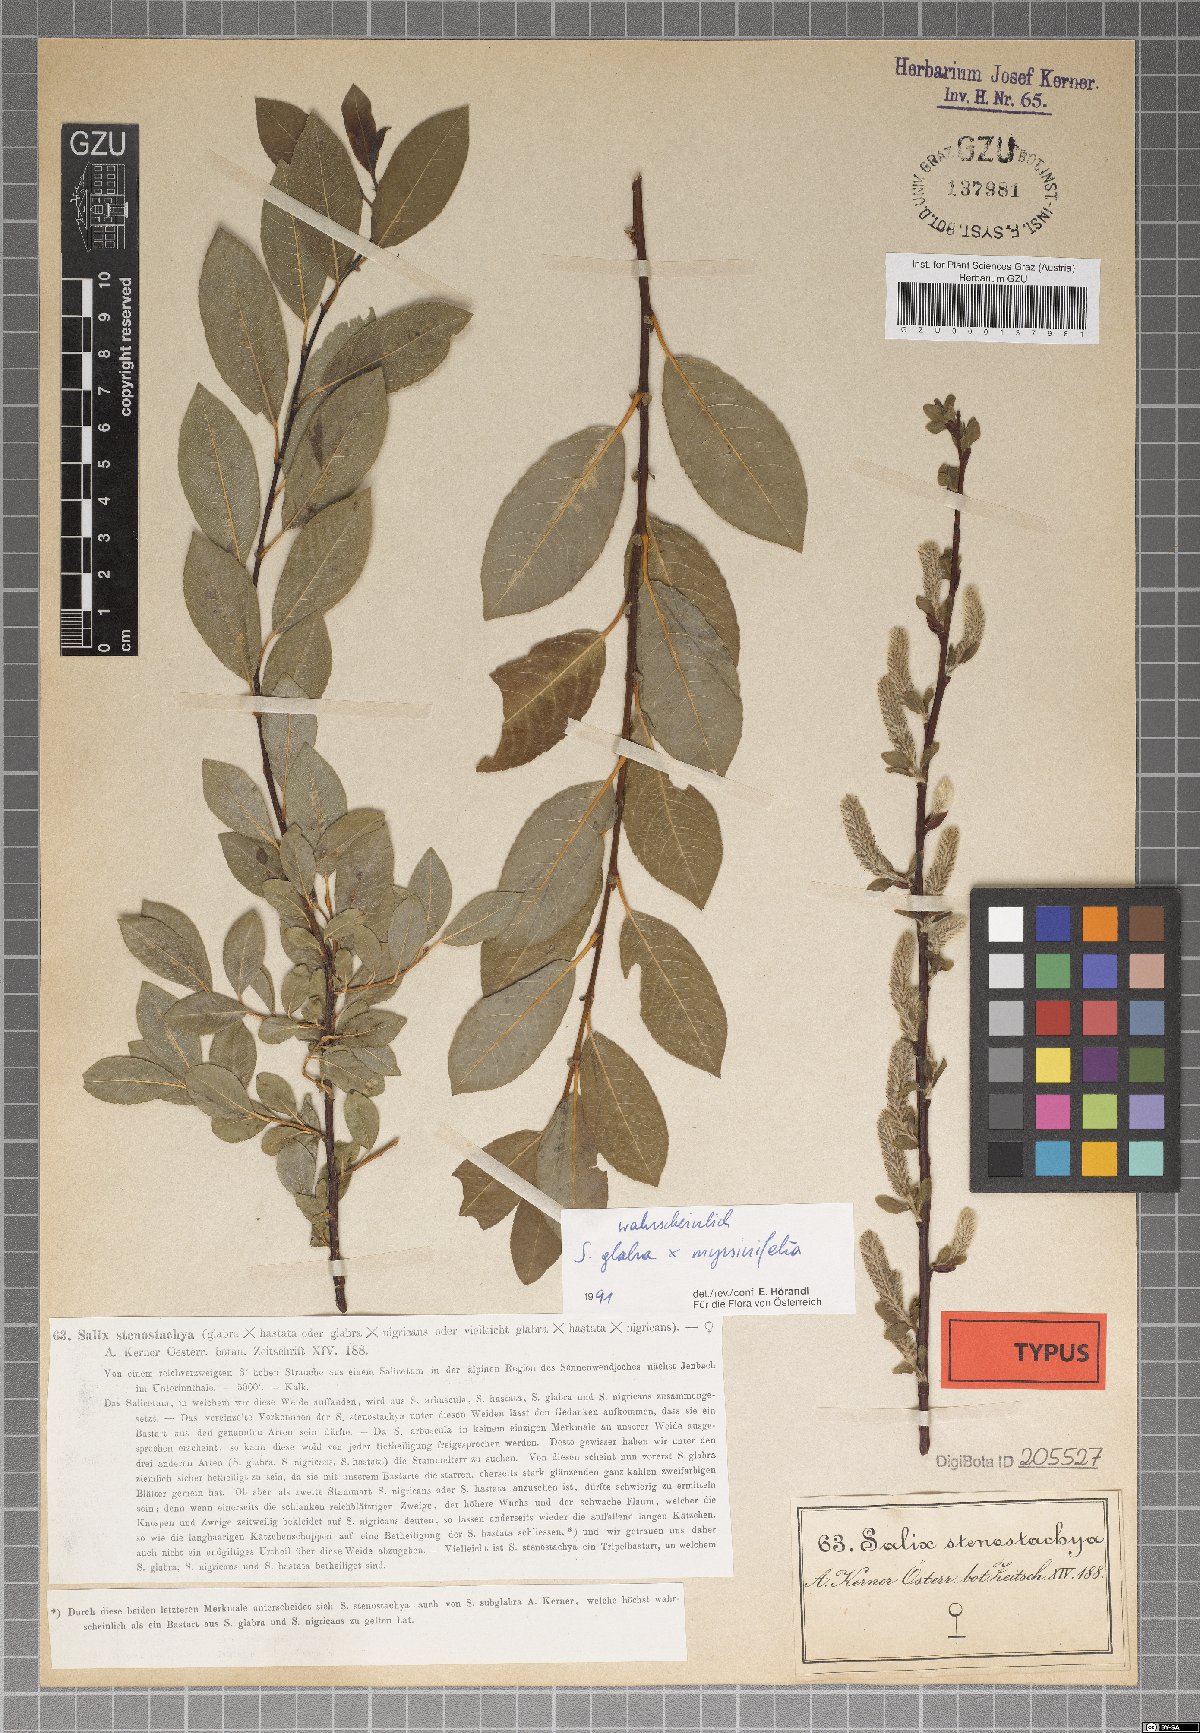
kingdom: Plantae
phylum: Tracheophyta
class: Magnoliopsida
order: Malpighiales
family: Salicaceae
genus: Salix
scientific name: Salix glabra
